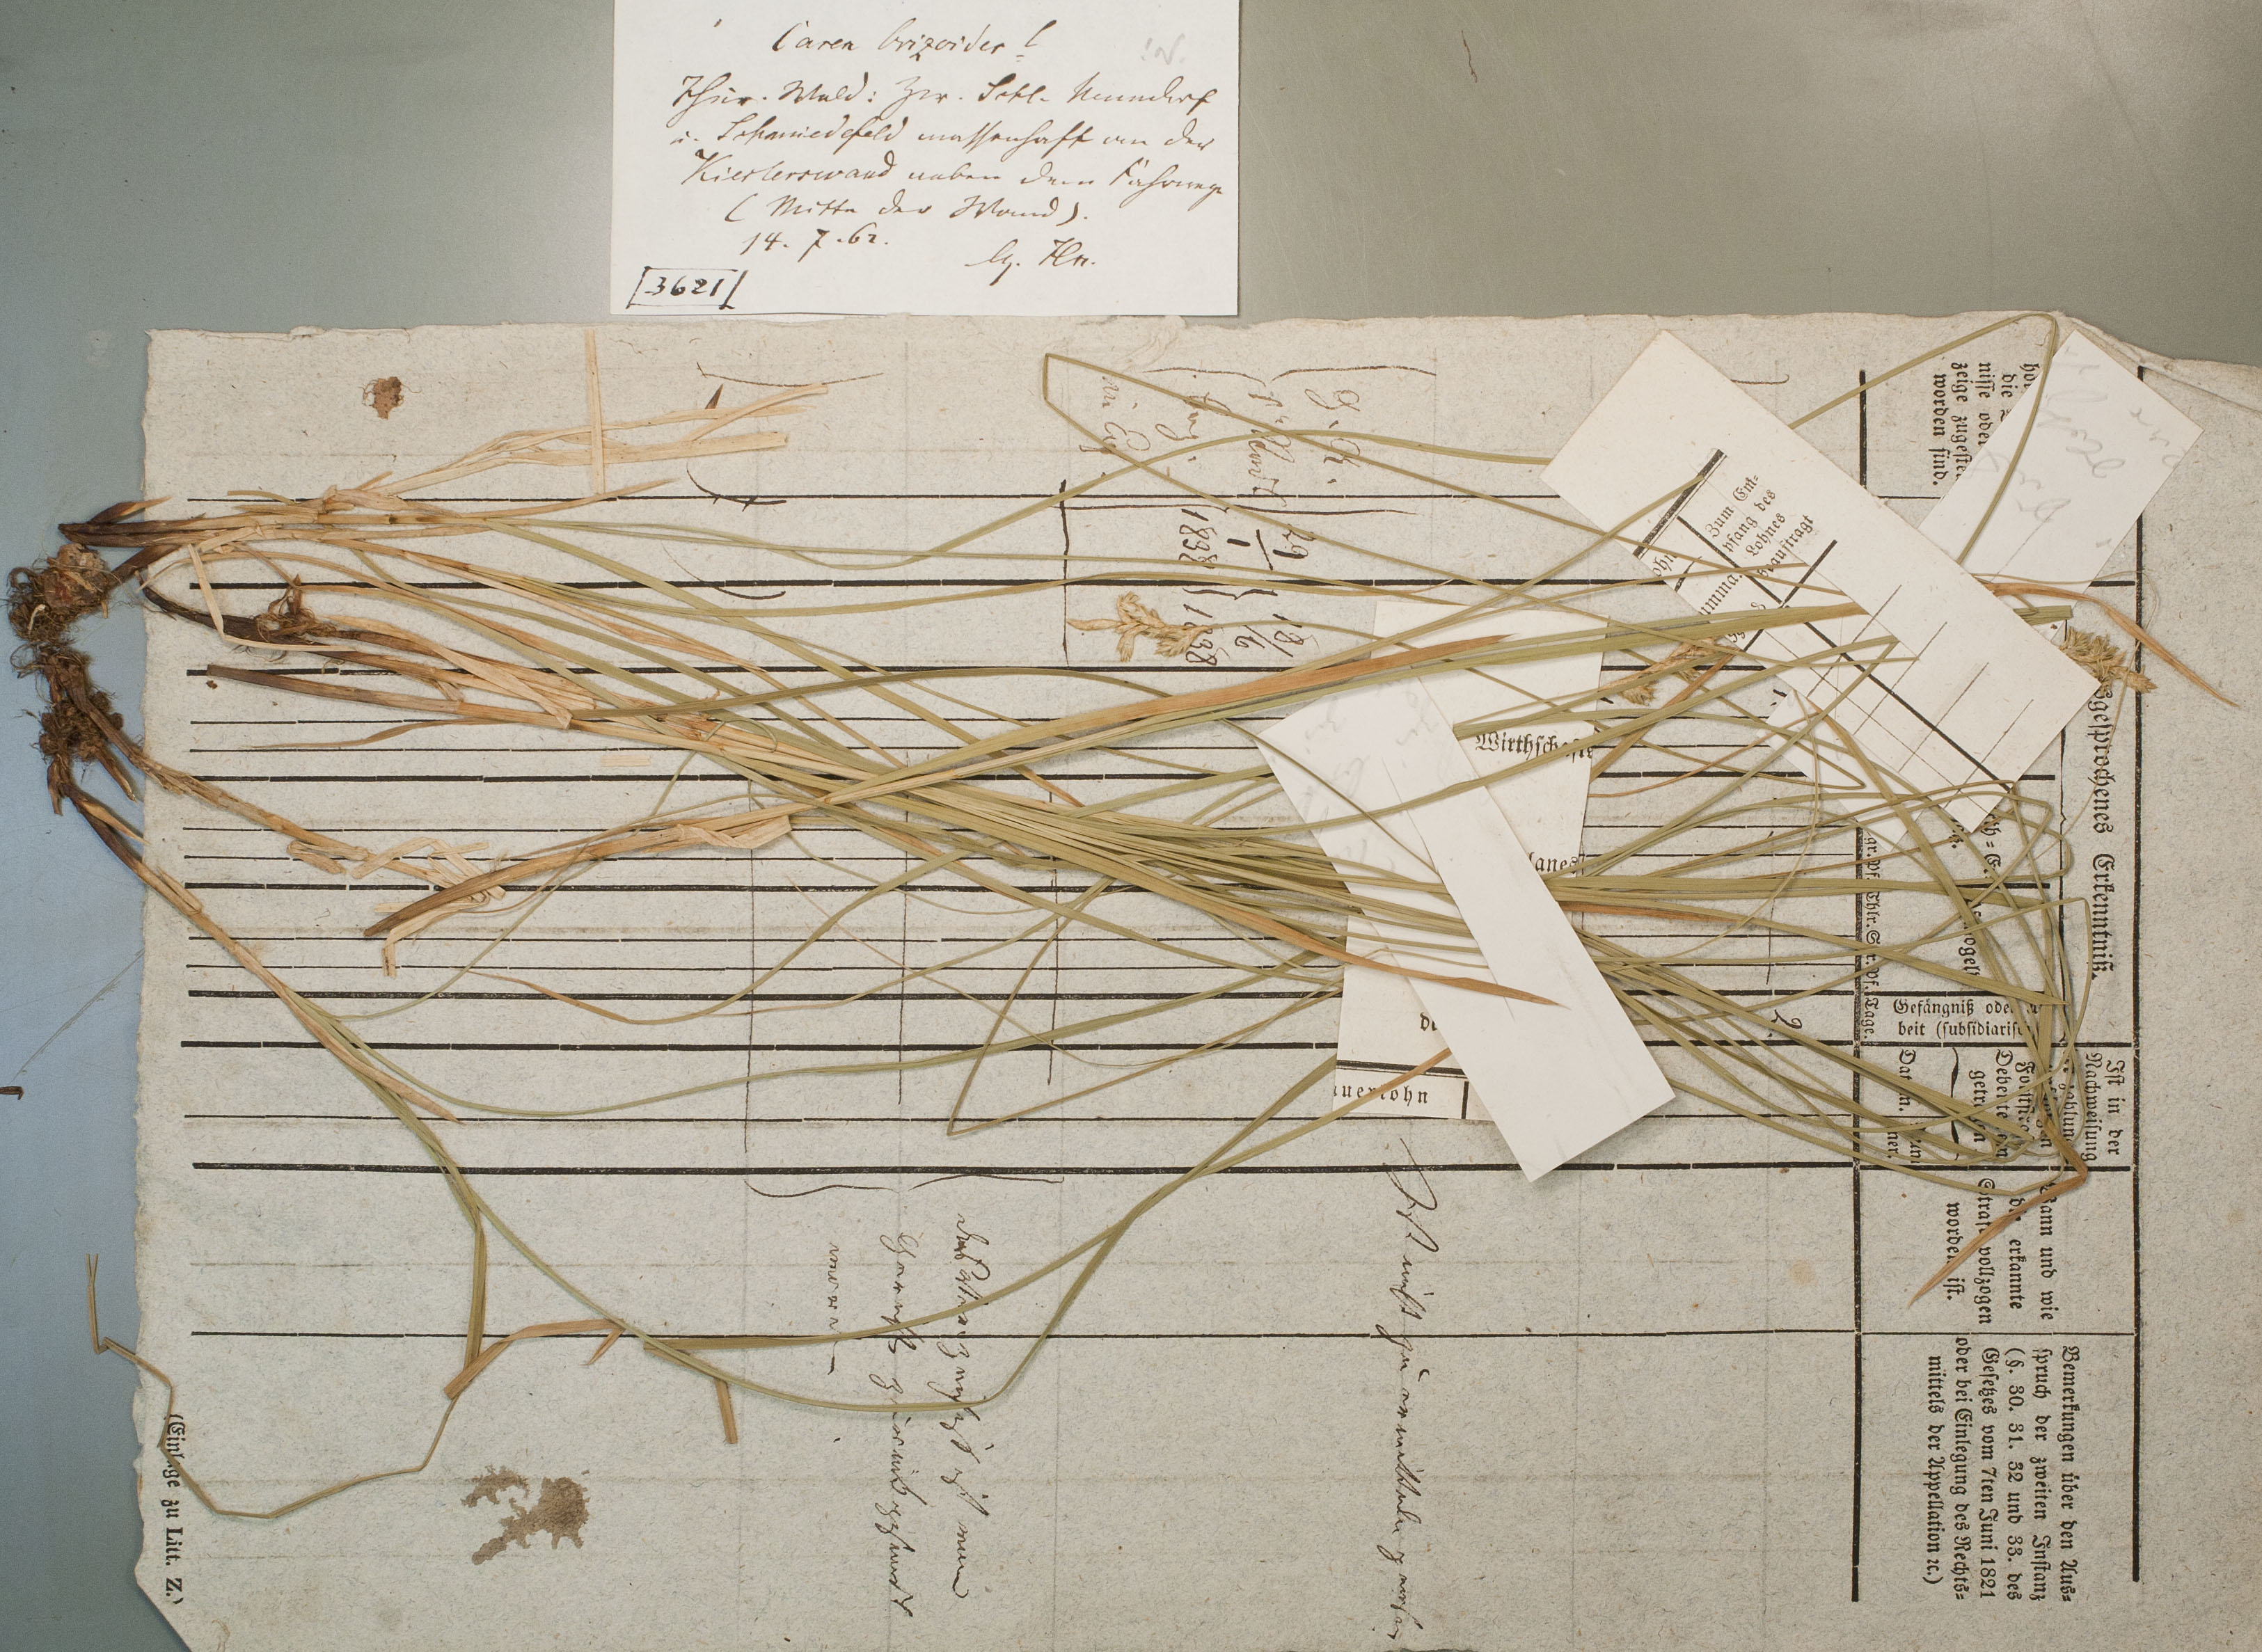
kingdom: Plantae
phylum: Tracheophyta
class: Liliopsida
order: Poales
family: Cyperaceae
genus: Carex
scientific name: Carex brizoides
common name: Quaking-grass sedge
